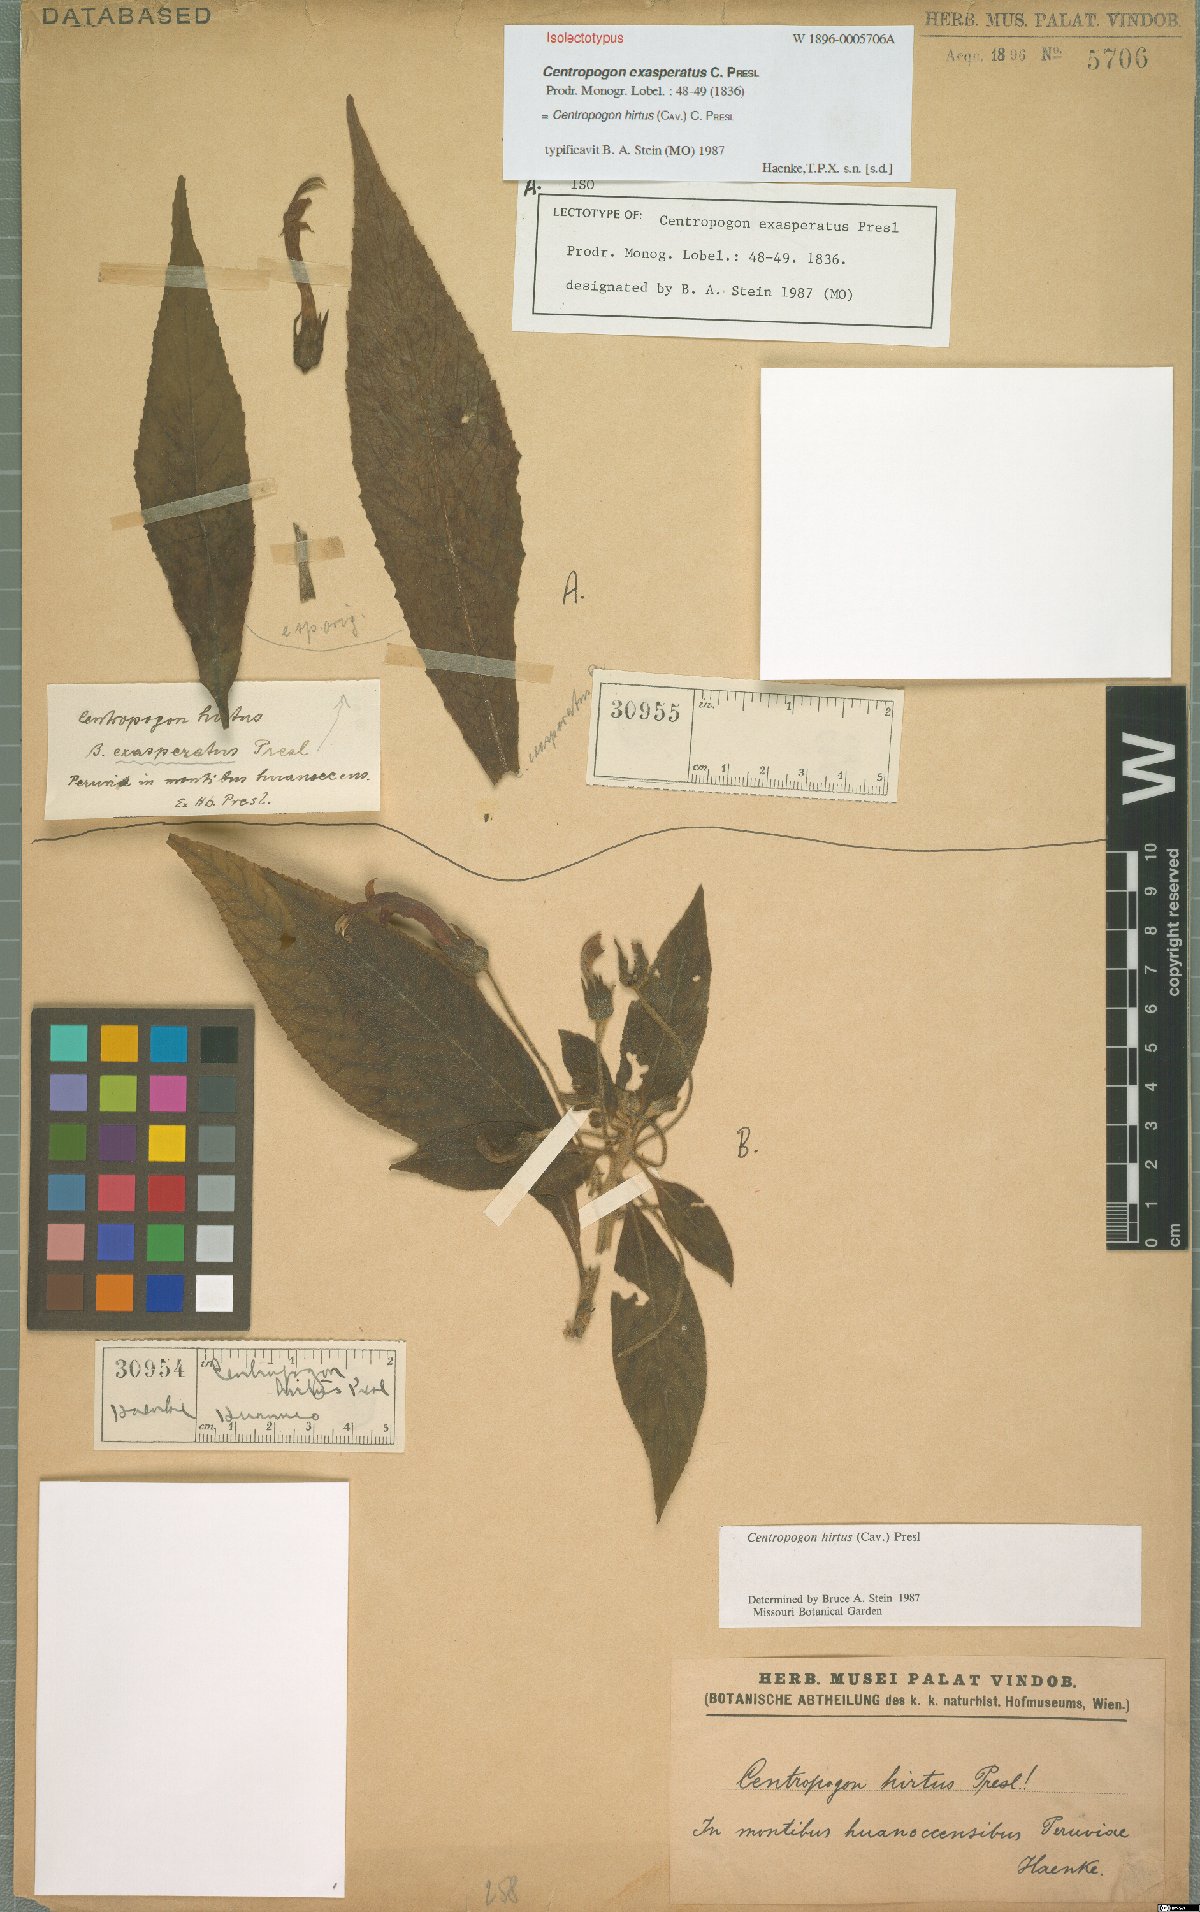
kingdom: Plantae
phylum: Tracheophyta
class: Magnoliopsida
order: Asterales
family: Campanulaceae
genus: Centropogon
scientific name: Centropogon hirtus
